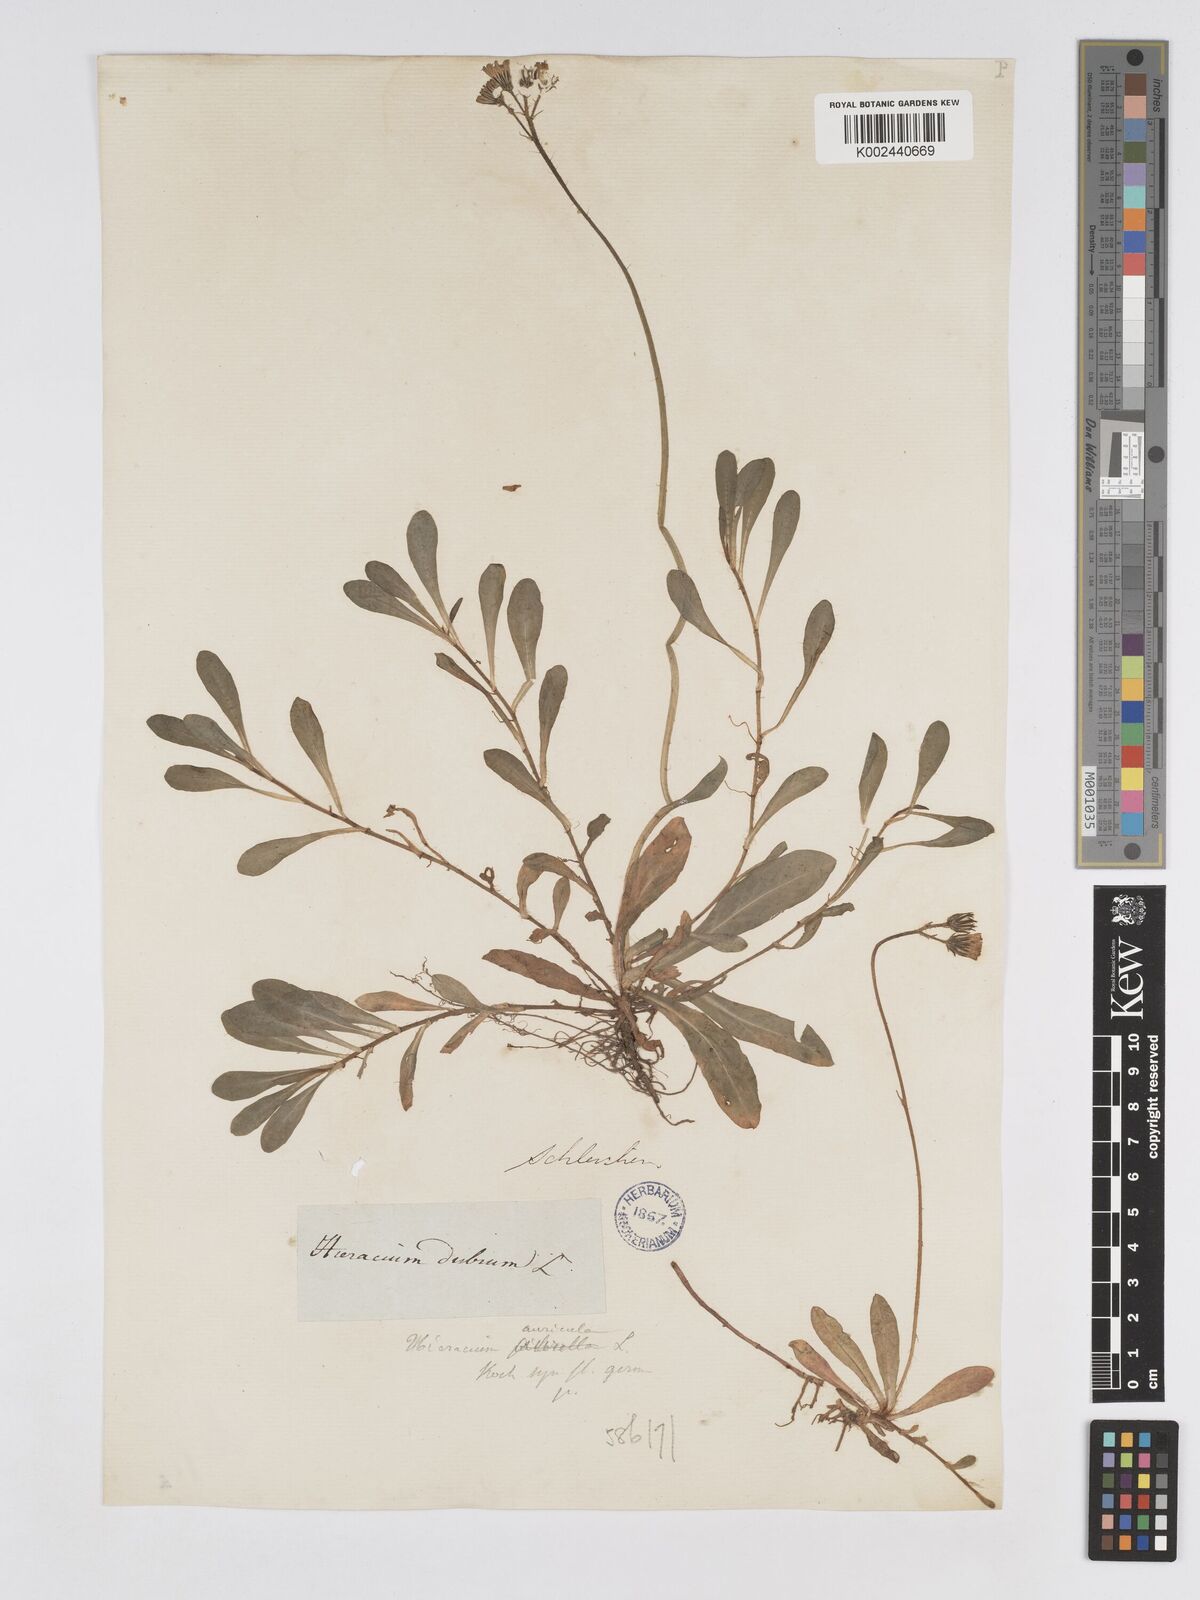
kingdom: Plantae
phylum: Tracheophyta
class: Magnoliopsida
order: Asterales
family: Asteraceae
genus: Pilosella
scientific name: Pilosella floribunda
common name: Glaucous hawkweed
